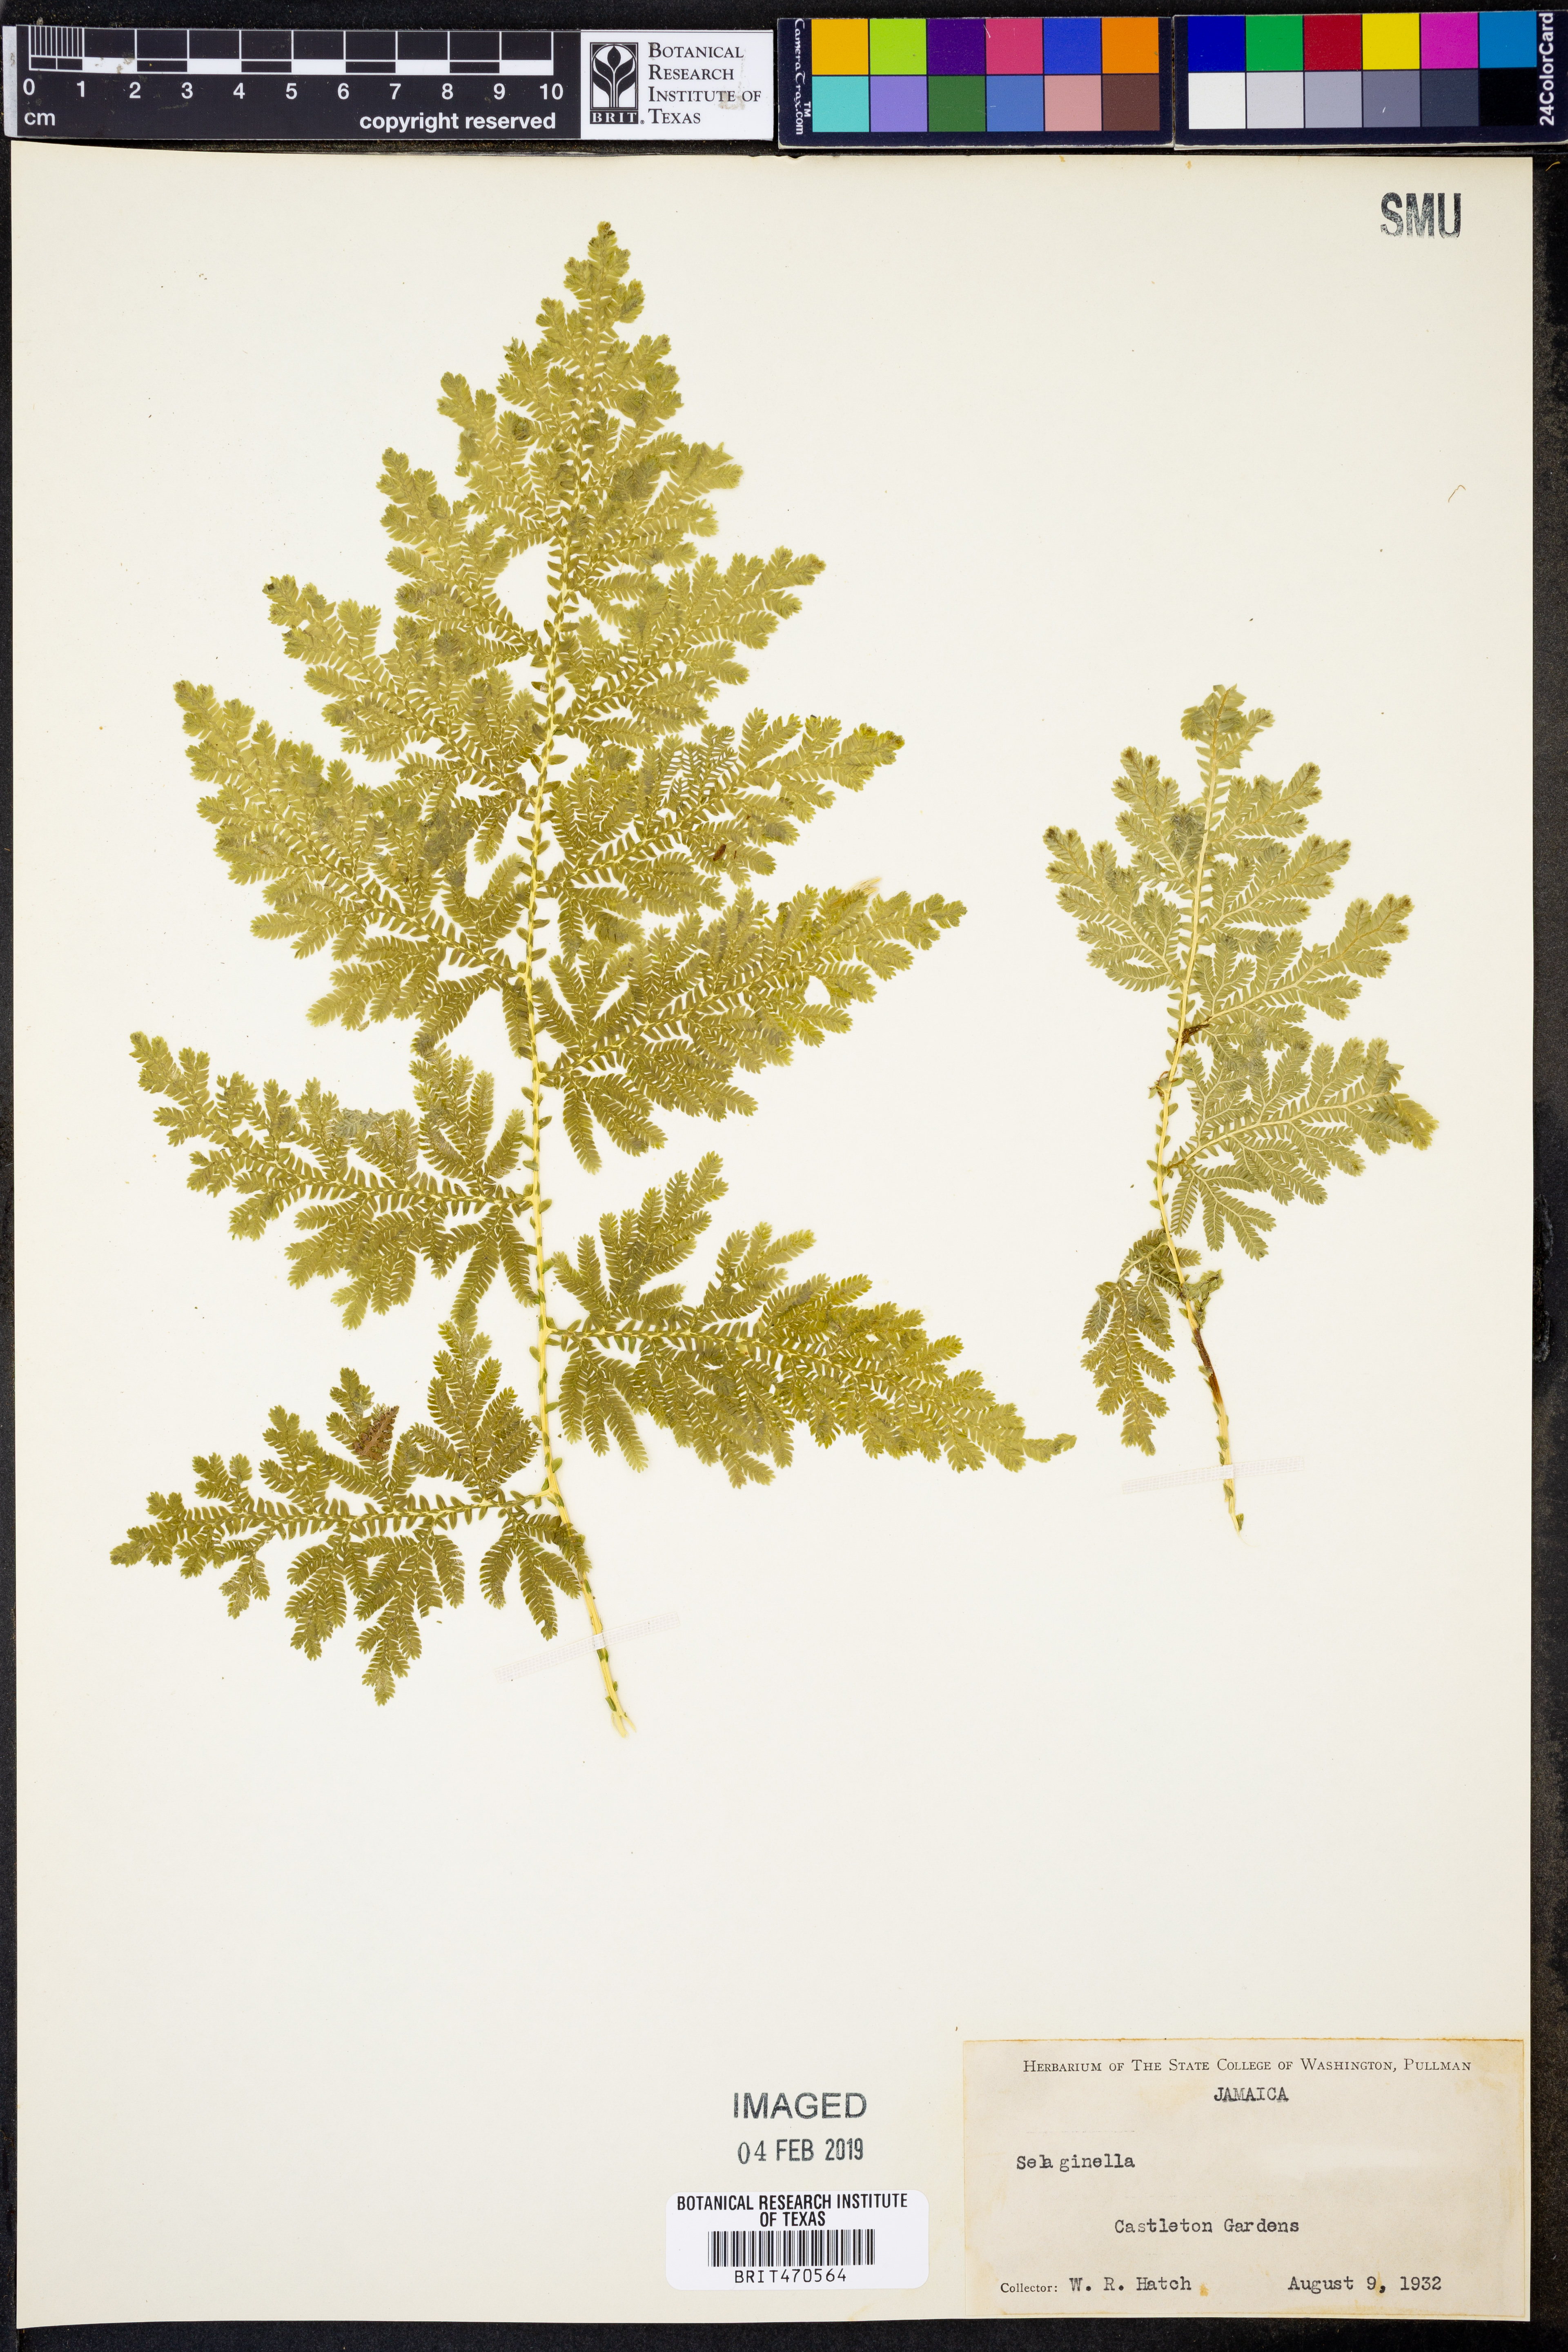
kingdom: Plantae
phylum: Tracheophyta
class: Lycopodiopsida
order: Selaginellales
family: Selaginellaceae
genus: Selaginella
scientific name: Selaginella
